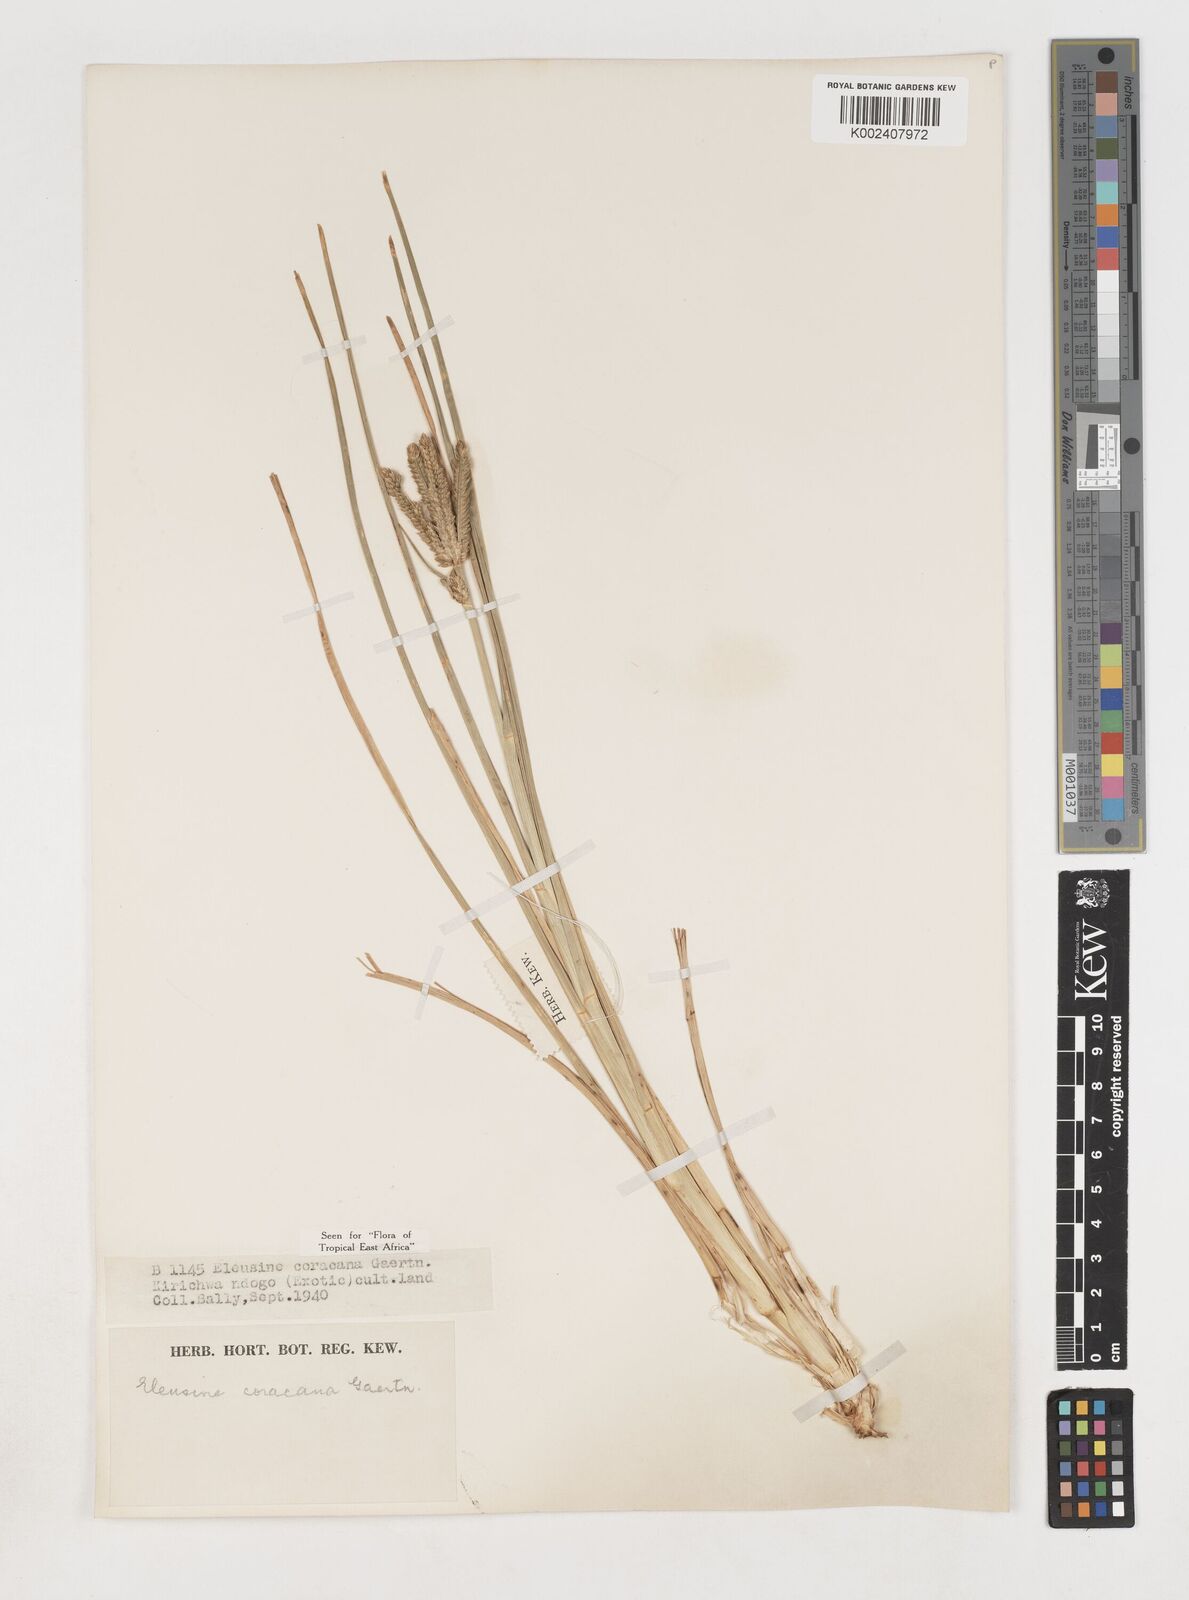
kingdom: Plantae
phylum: Tracheophyta
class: Liliopsida
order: Poales
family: Poaceae
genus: Eleusine
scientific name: Eleusine coracana
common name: Finger millet
